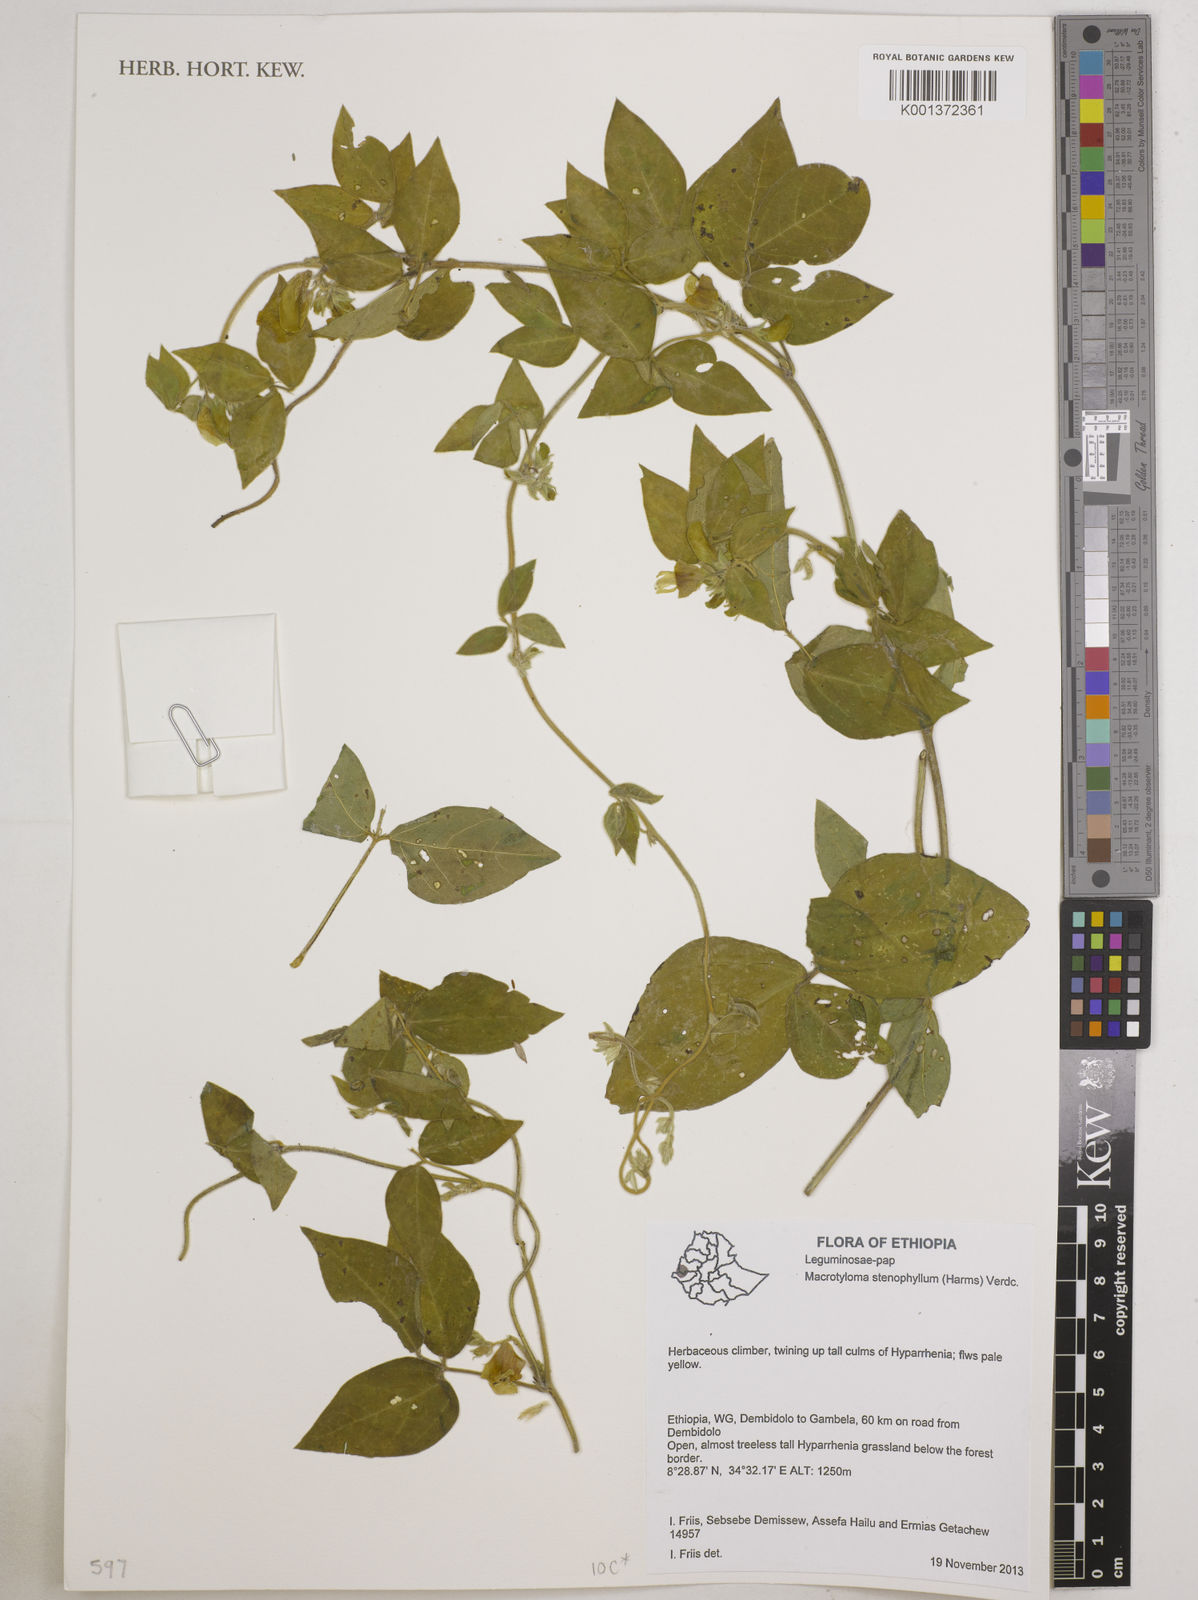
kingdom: Plantae
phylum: Tracheophyta
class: Magnoliopsida
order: Fabales
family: Fabaceae
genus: Macrotyloma
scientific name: Macrotyloma stenophyllum
